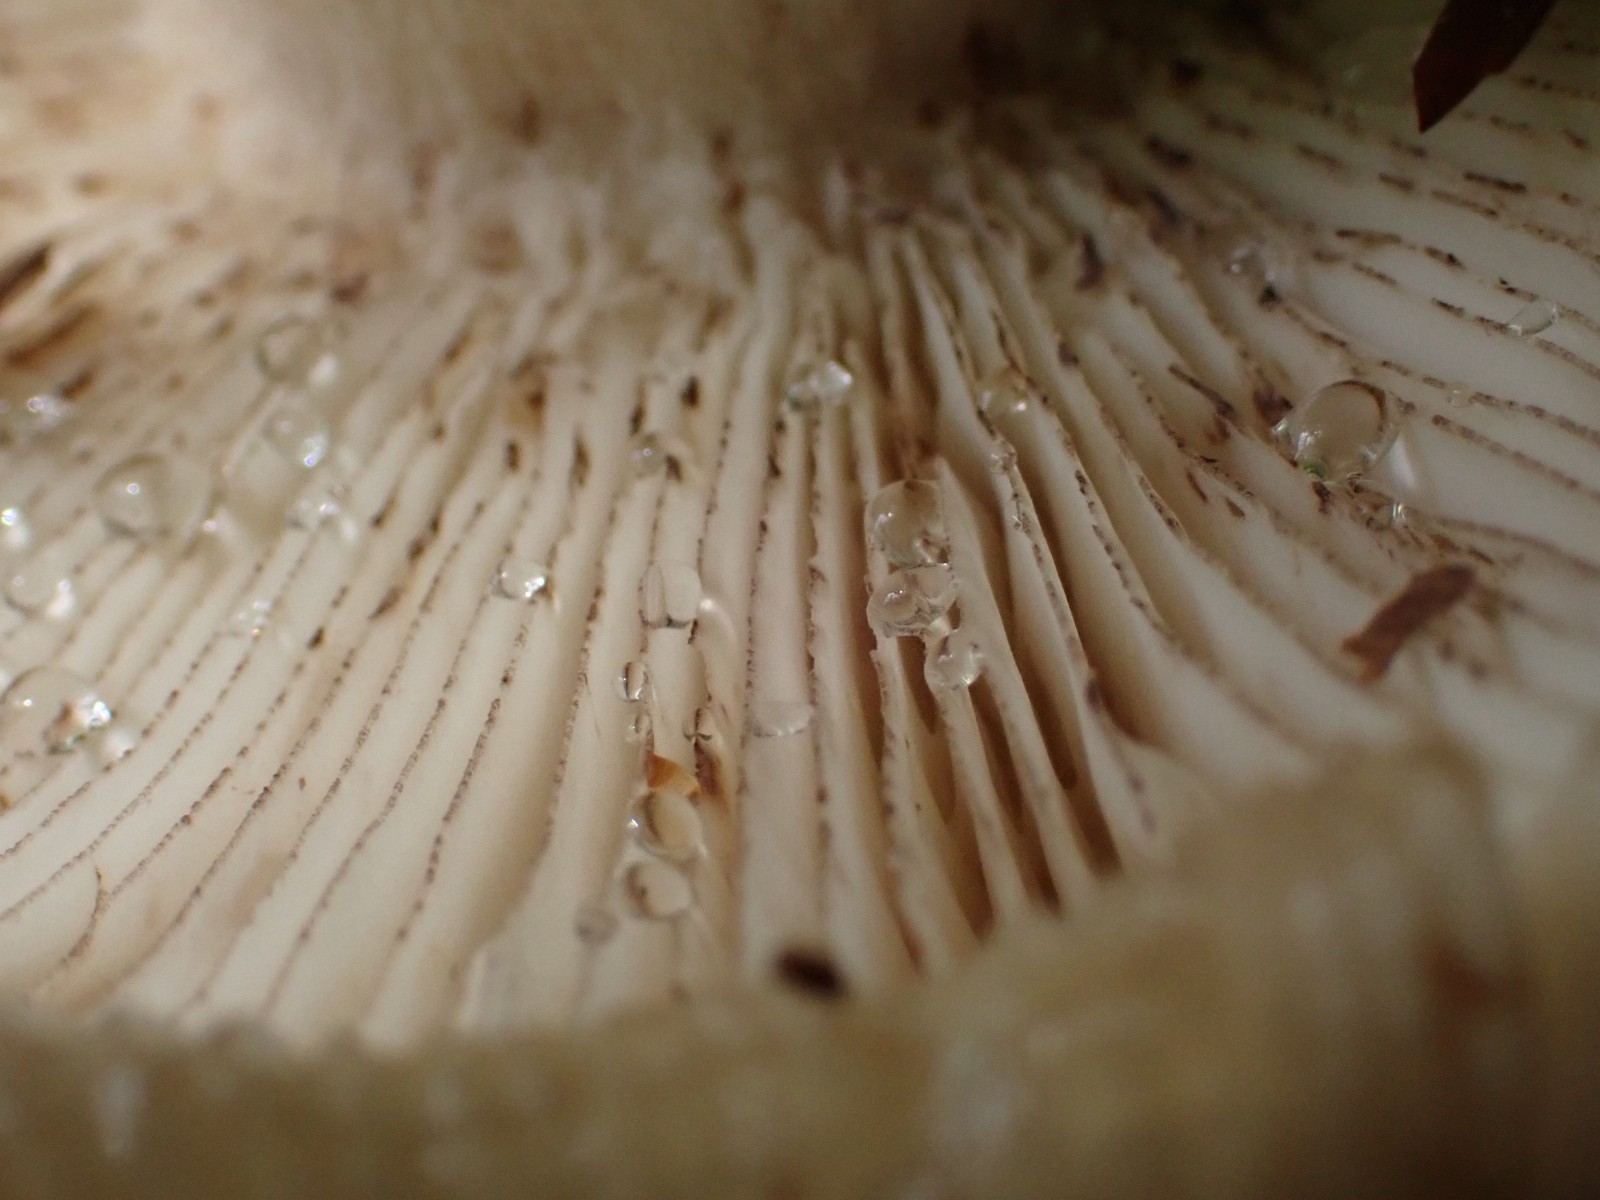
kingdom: Fungi
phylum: Basidiomycota
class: Agaricomycetes
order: Russulales
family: Russulaceae
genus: Russula
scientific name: Russula illota
